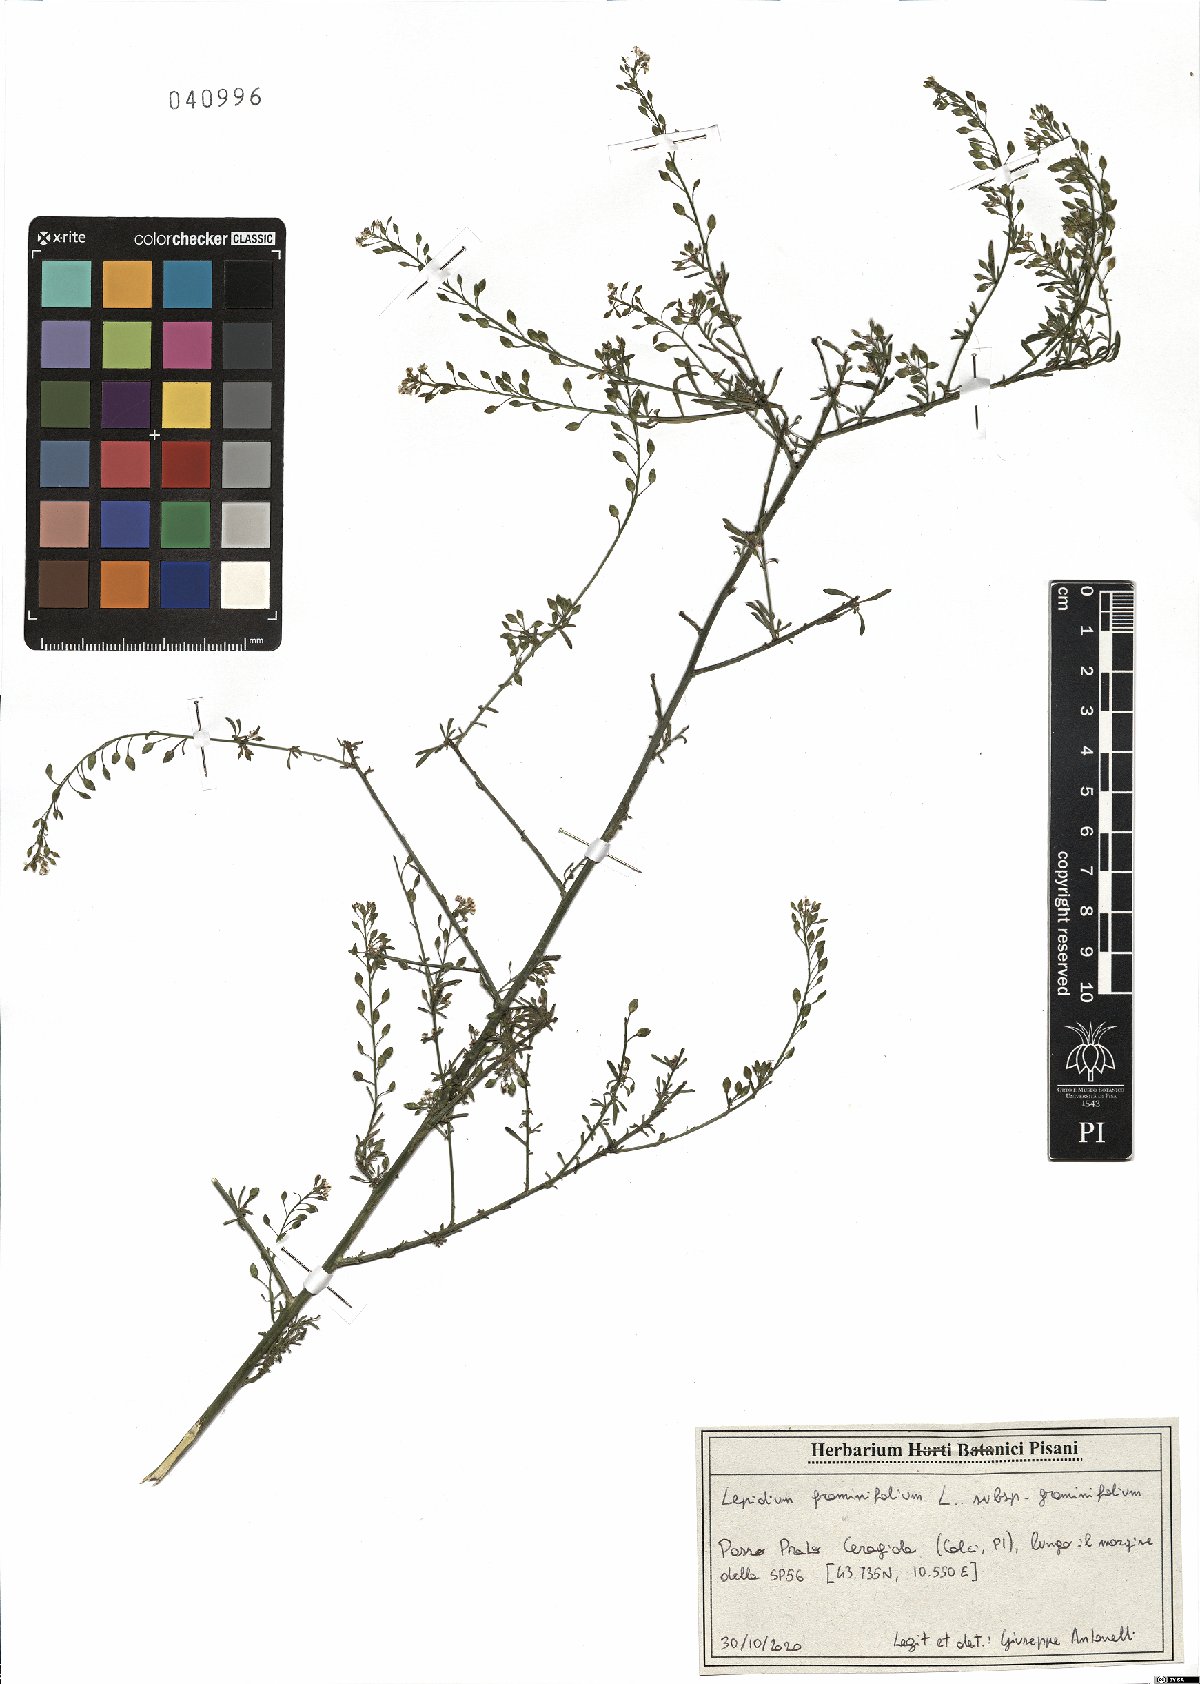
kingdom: Plantae
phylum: Tracheophyta
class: Magnoliopsida
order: Brassicales
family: Brassicaceae
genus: Lepidium
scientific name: Lepidium graminifolium
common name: Tall pepperwort
